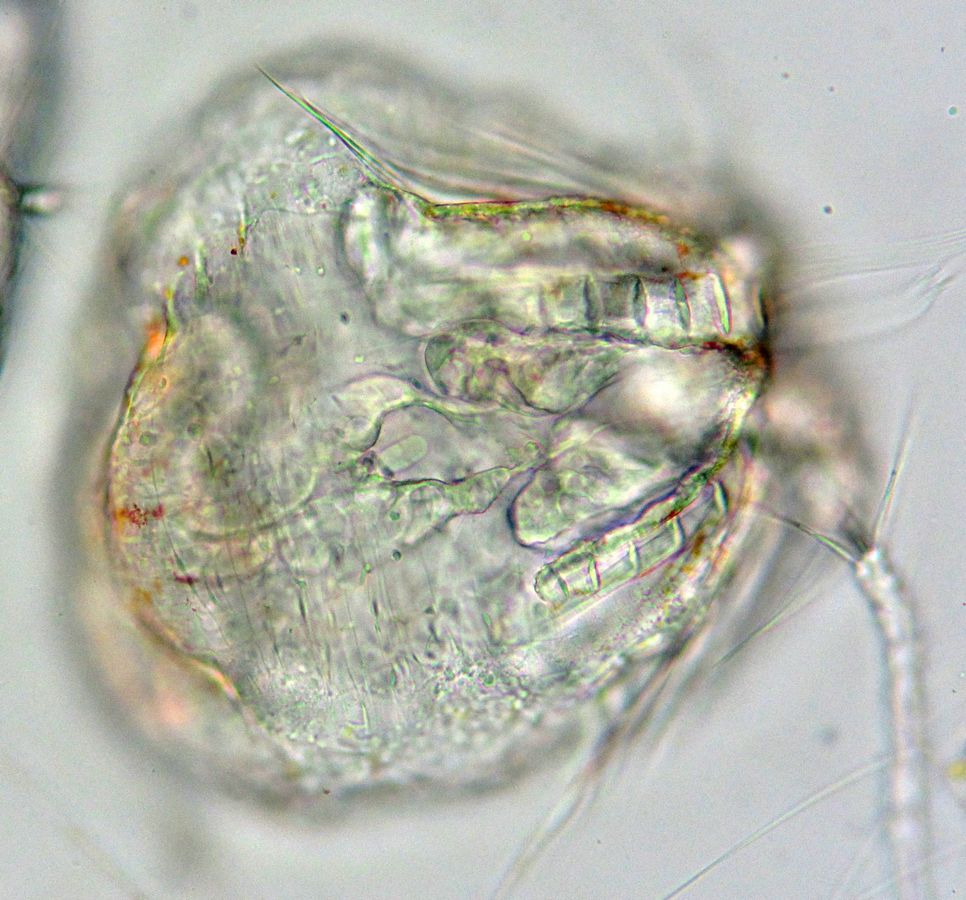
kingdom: Animalia
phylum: Ctenophora
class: Nuda
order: Beroida
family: Beroidae
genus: Beroe
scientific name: Beroe cucumis
